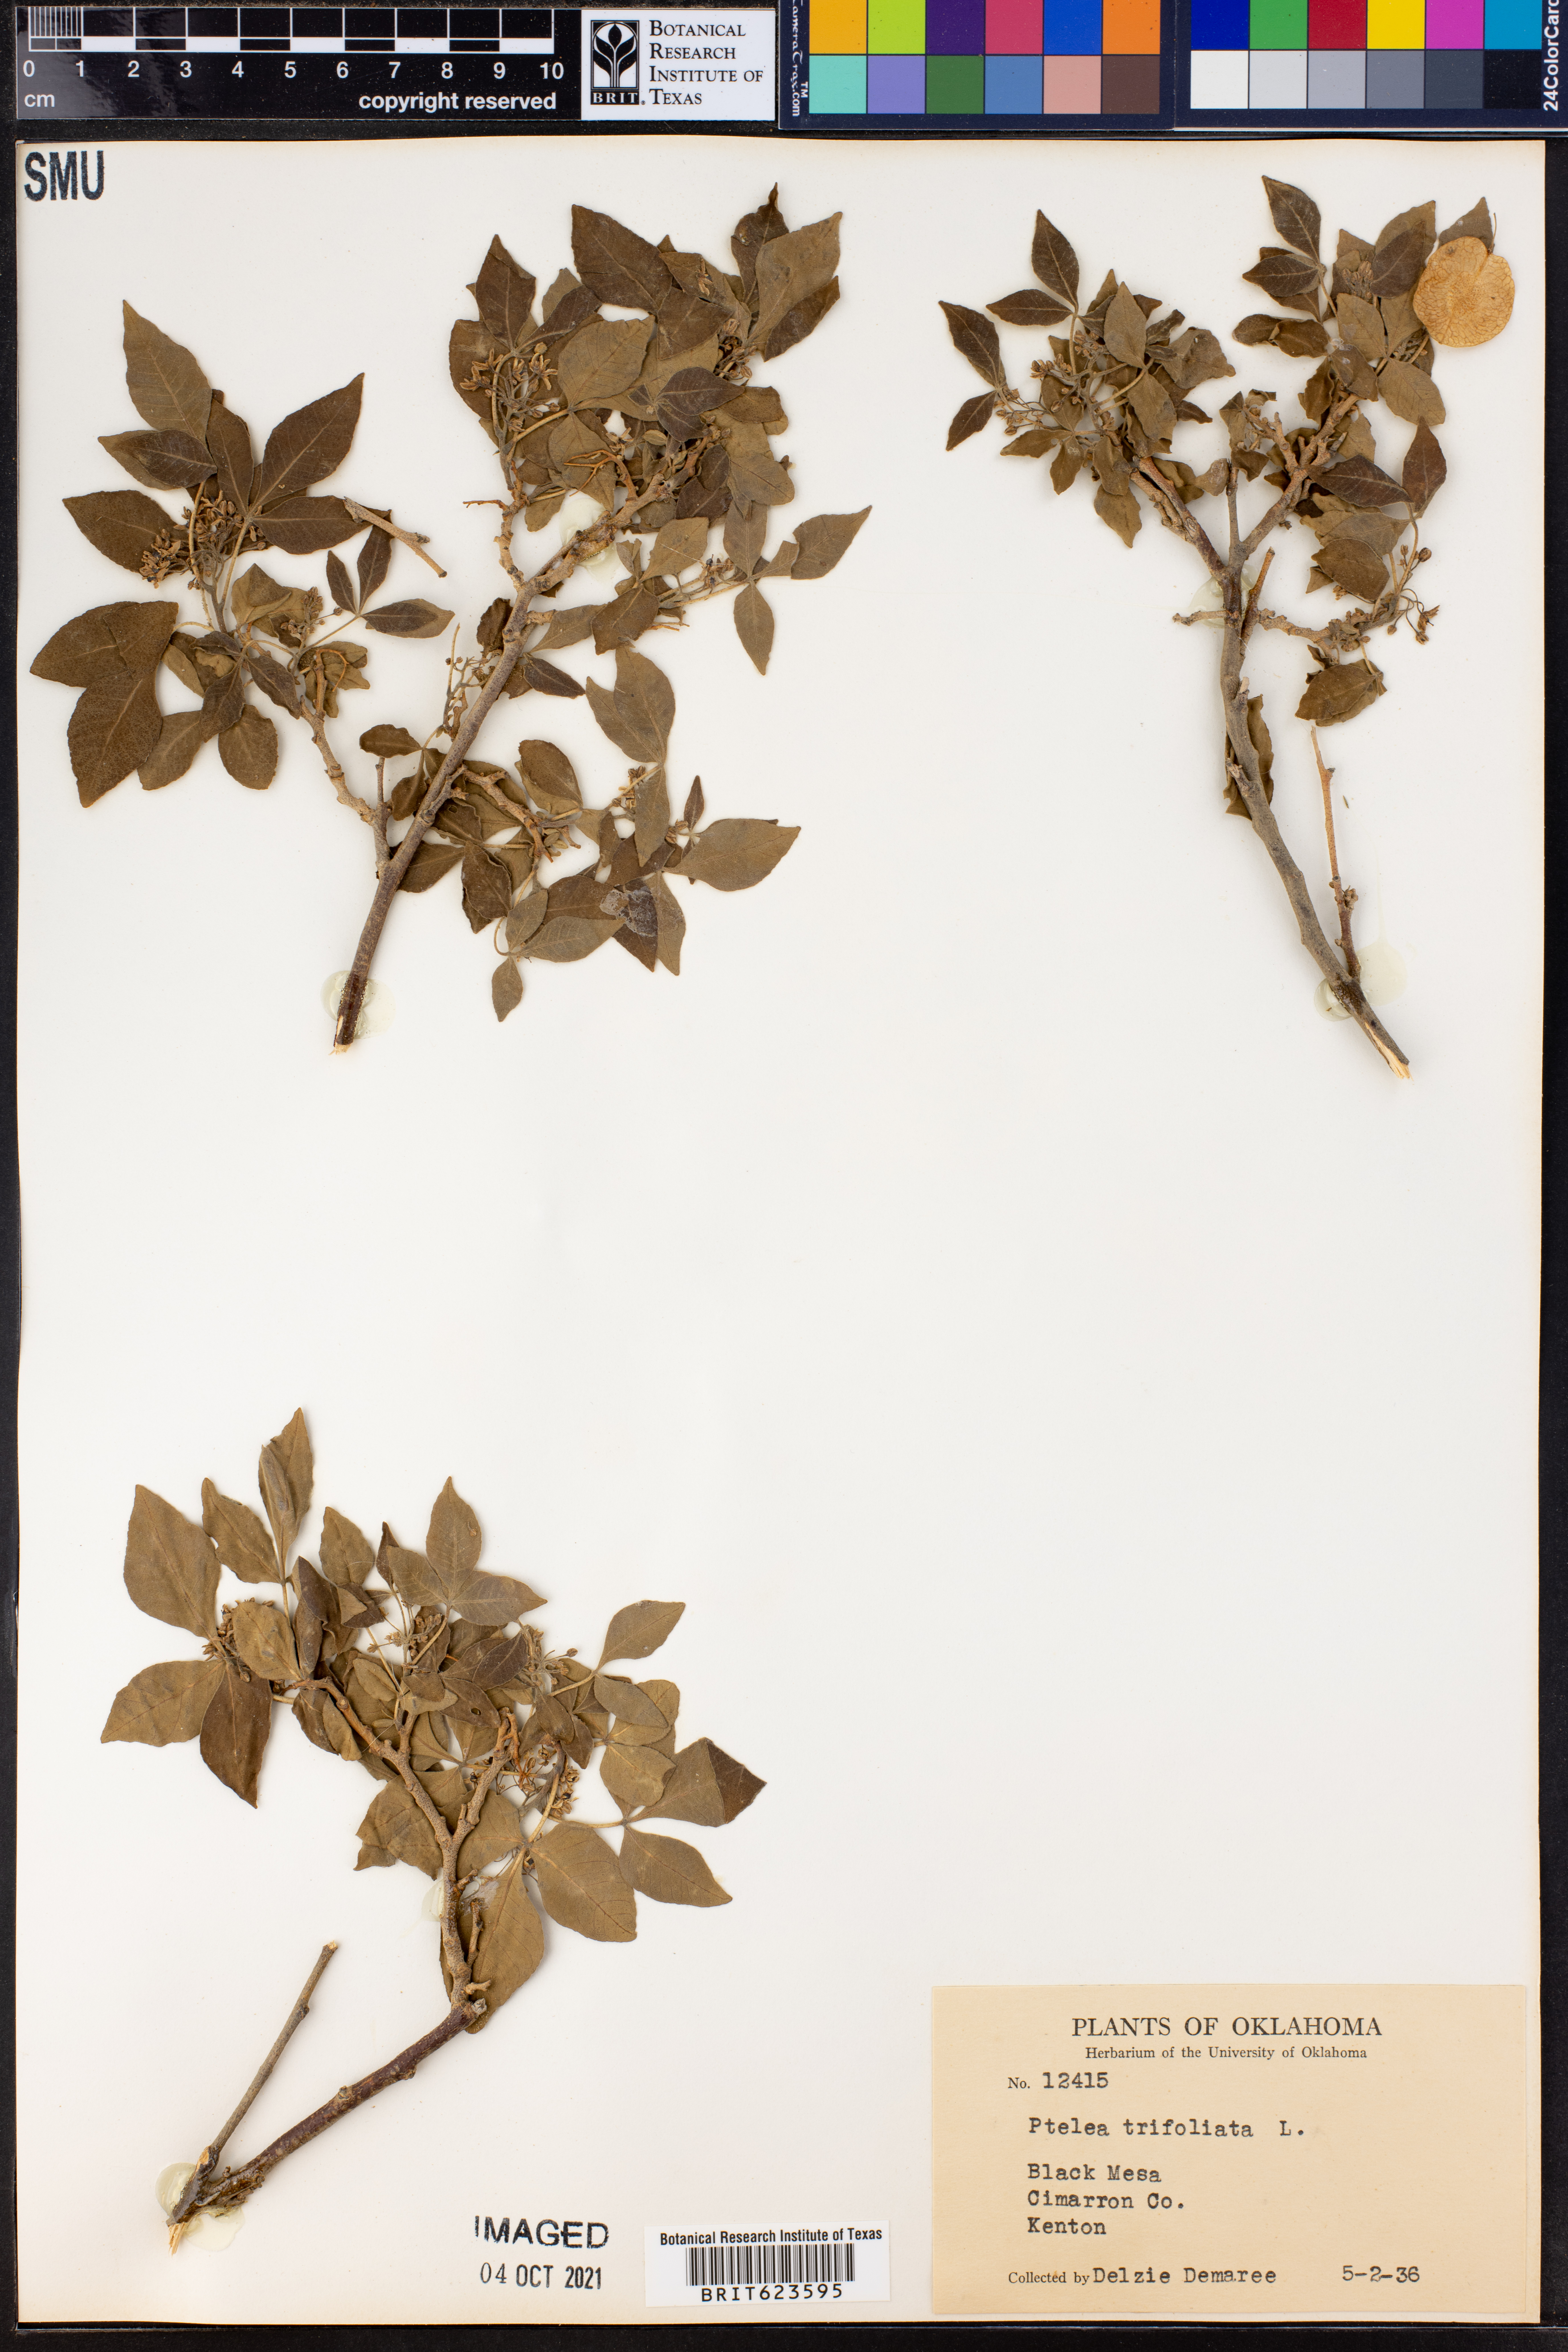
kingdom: Plantae
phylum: Tracheophyta
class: Magnoliopsida
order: Sapindales
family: Rutaceae
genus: Ptelea
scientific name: Ptelea trifoliata
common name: Common hop-tree
